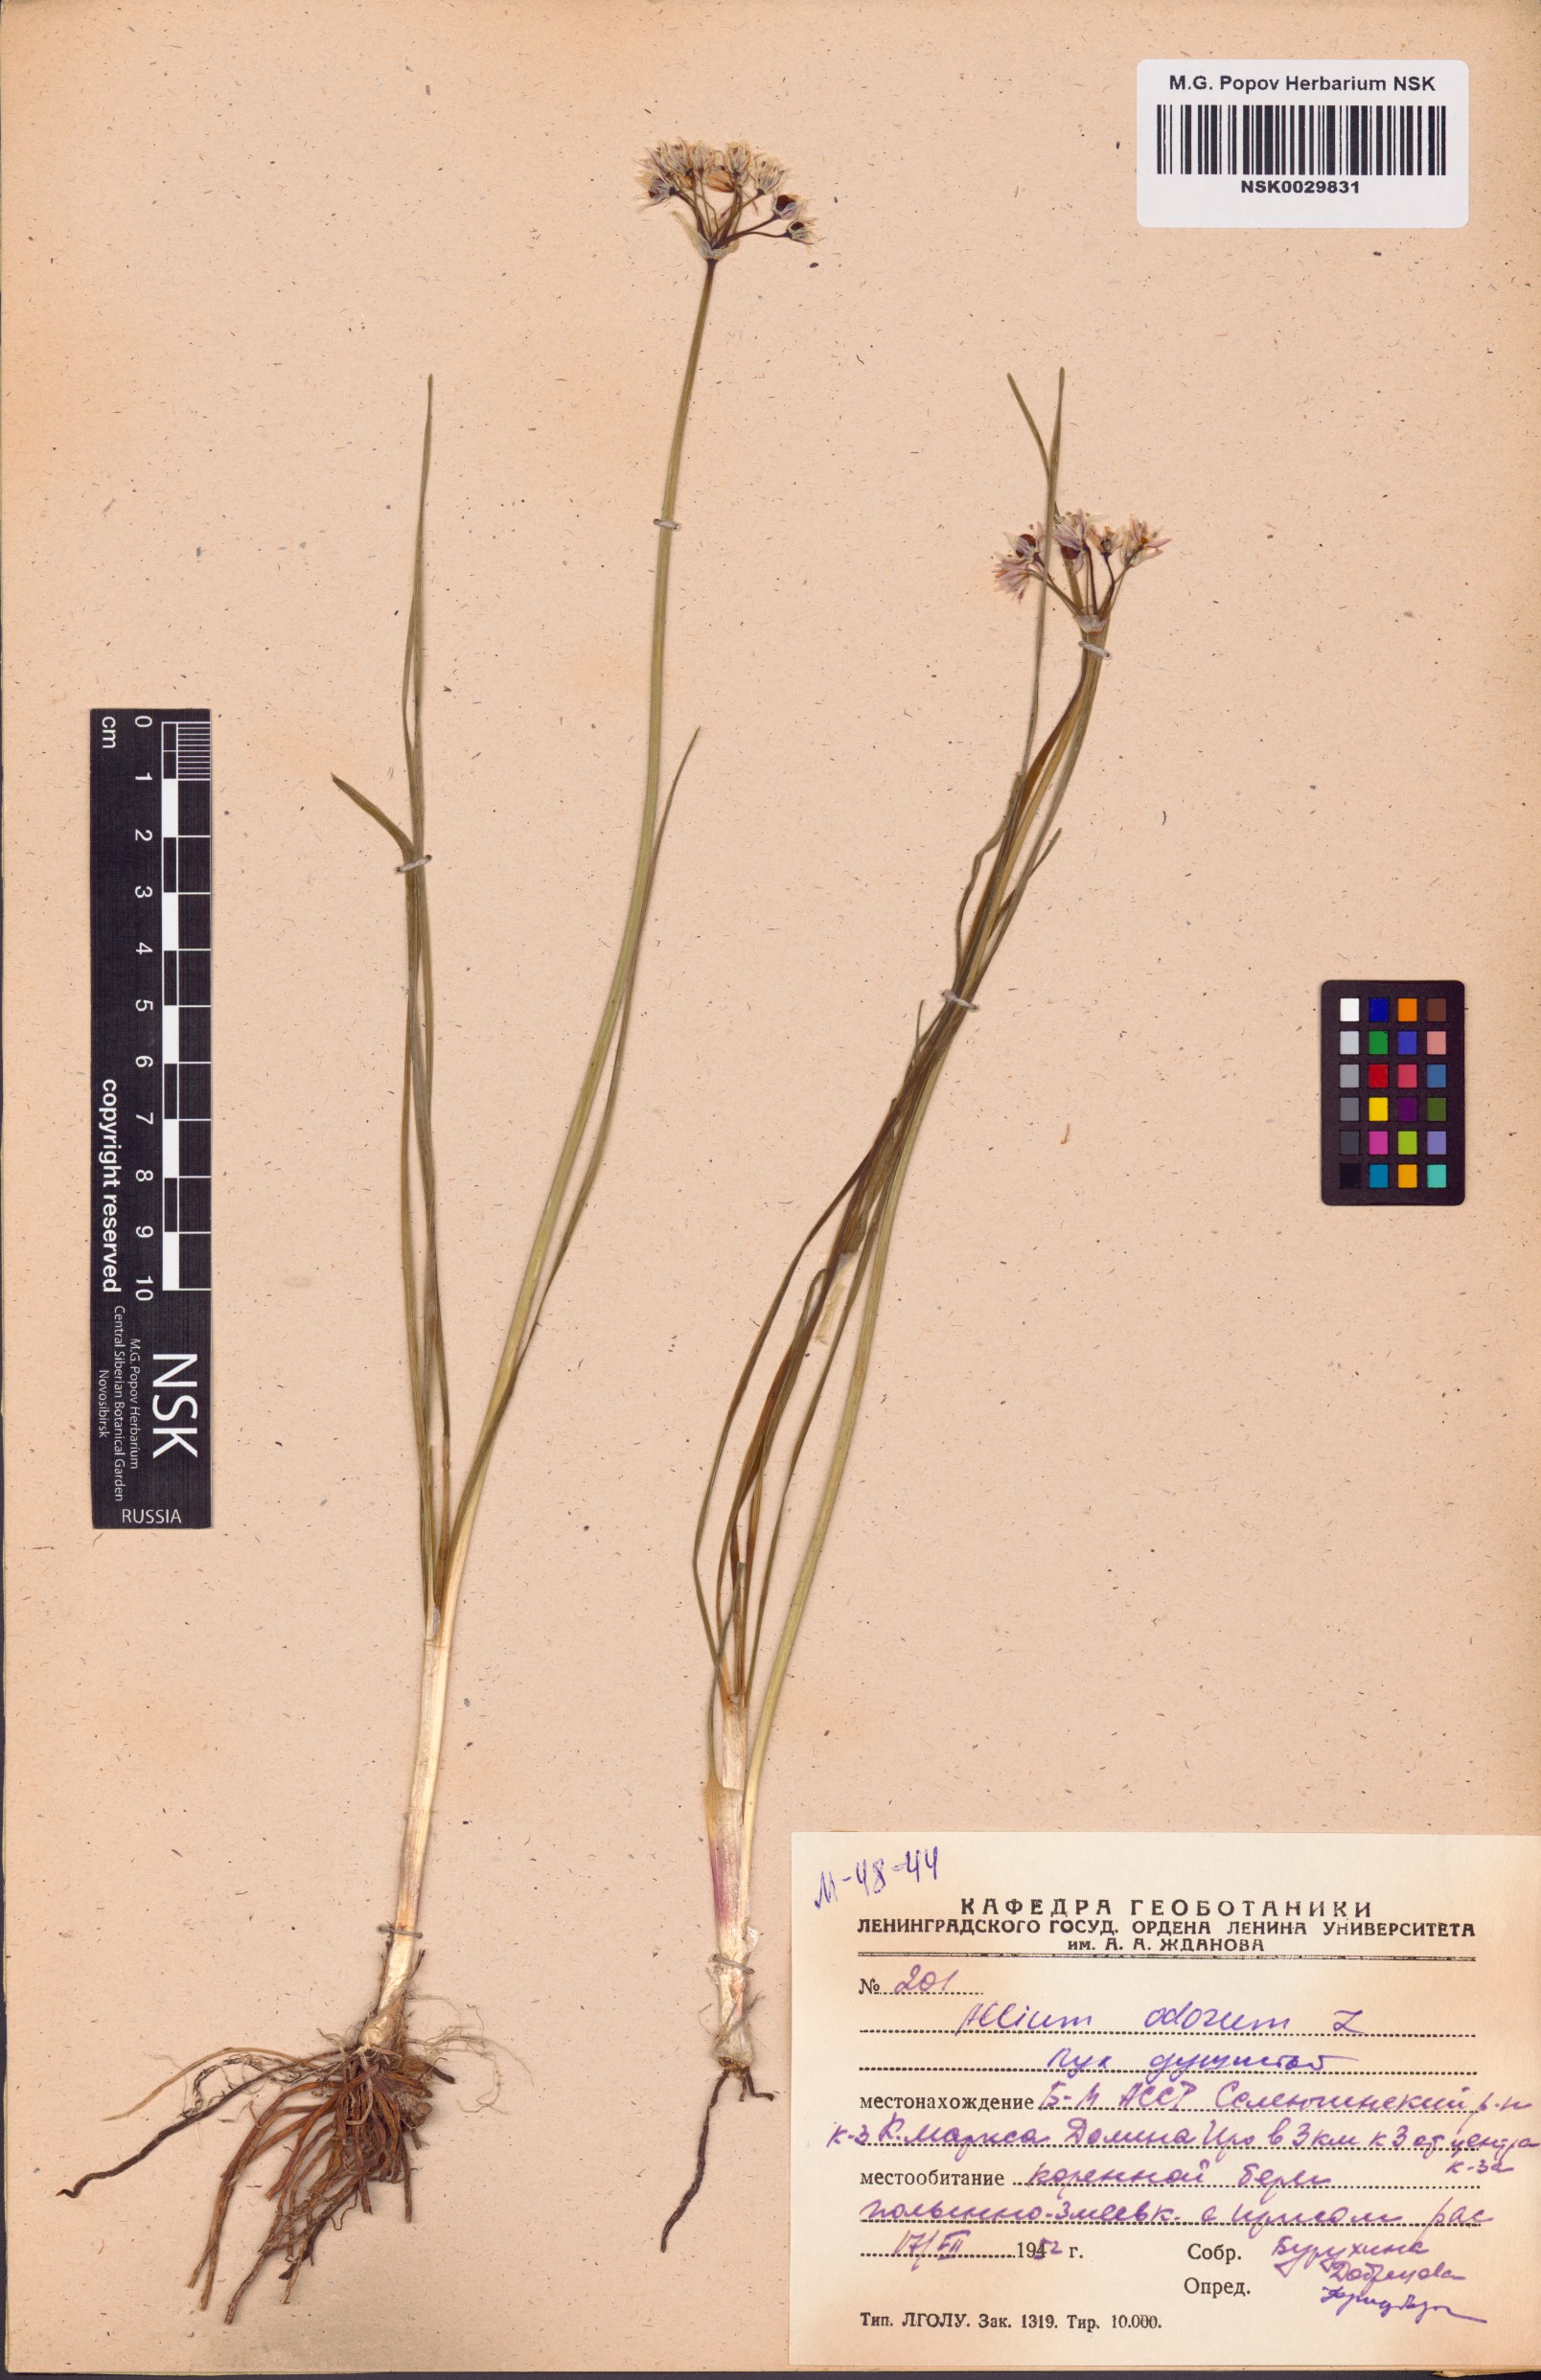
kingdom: Plantae
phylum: Tracheophyta
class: Liliopsida
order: Asparagales
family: Amaryllidaceae
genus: Allium
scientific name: Allium ramosum
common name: Fragrant garlic
